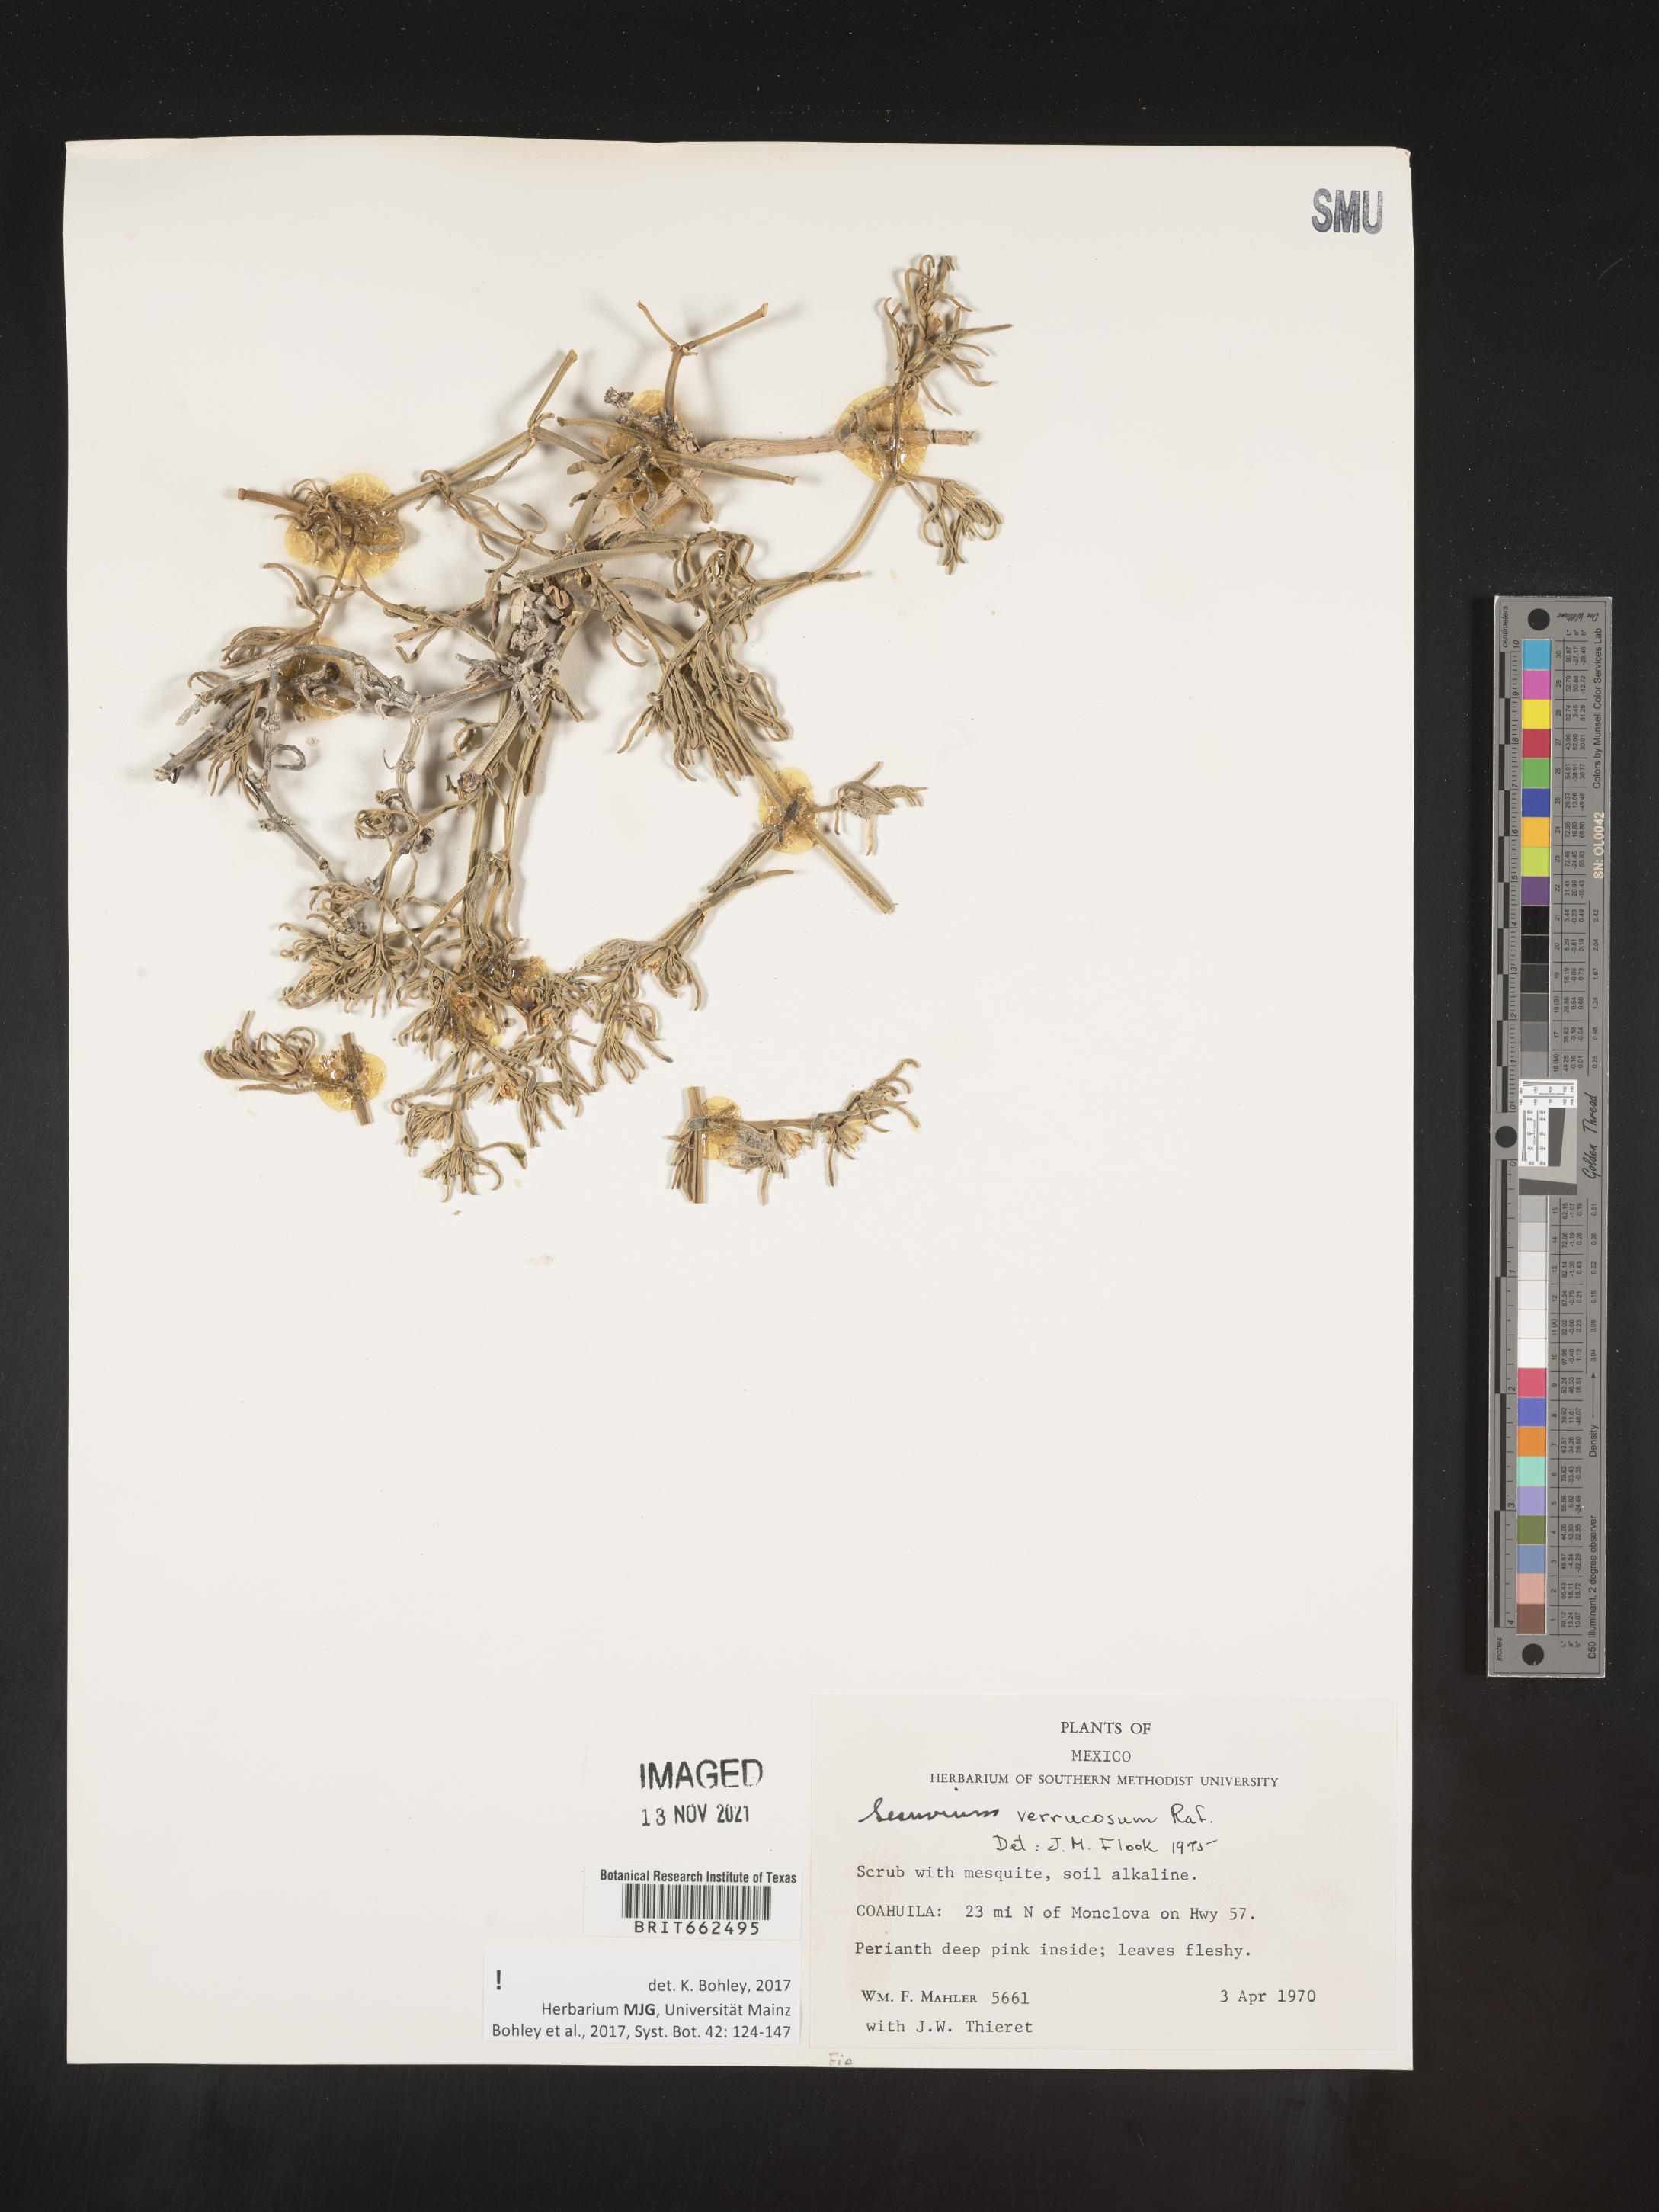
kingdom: Plantae
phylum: Tracheophyta
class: Magnoliopsida
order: Caryophyllales
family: Aizoaceae
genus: Sesuvium
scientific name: Sesuvium
